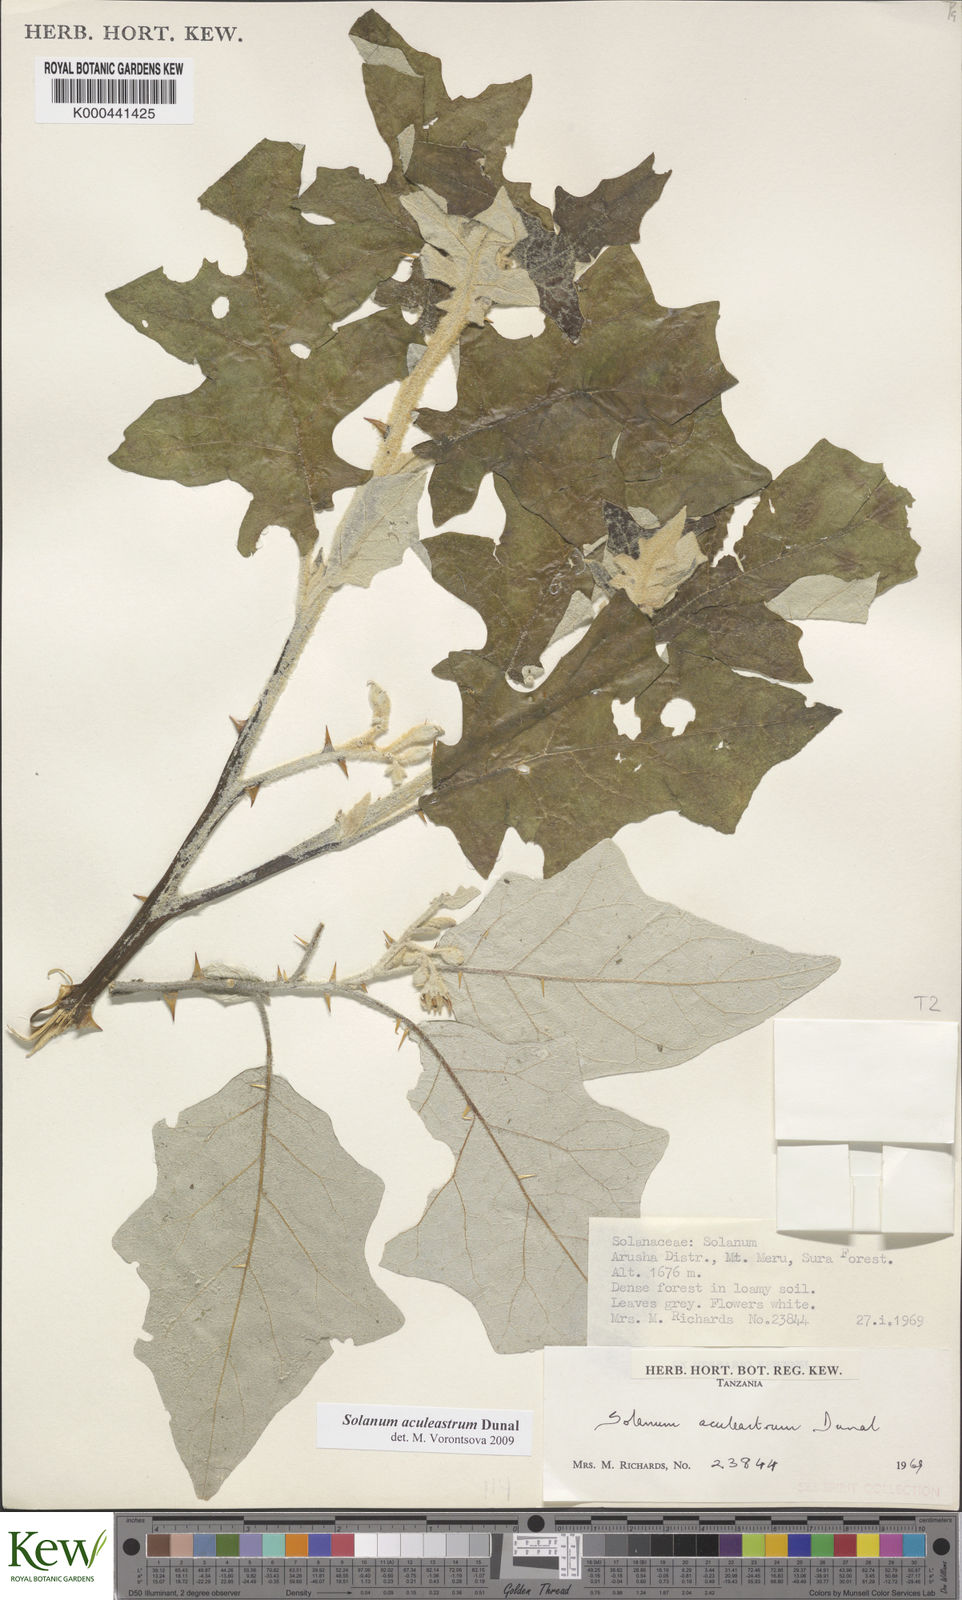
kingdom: Plantae
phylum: Tracheophyta
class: Magnoliopsida
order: Solanales
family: Solanaceae
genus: Solanum
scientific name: Solanum aculeastrum
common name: Goat bitter-apple
